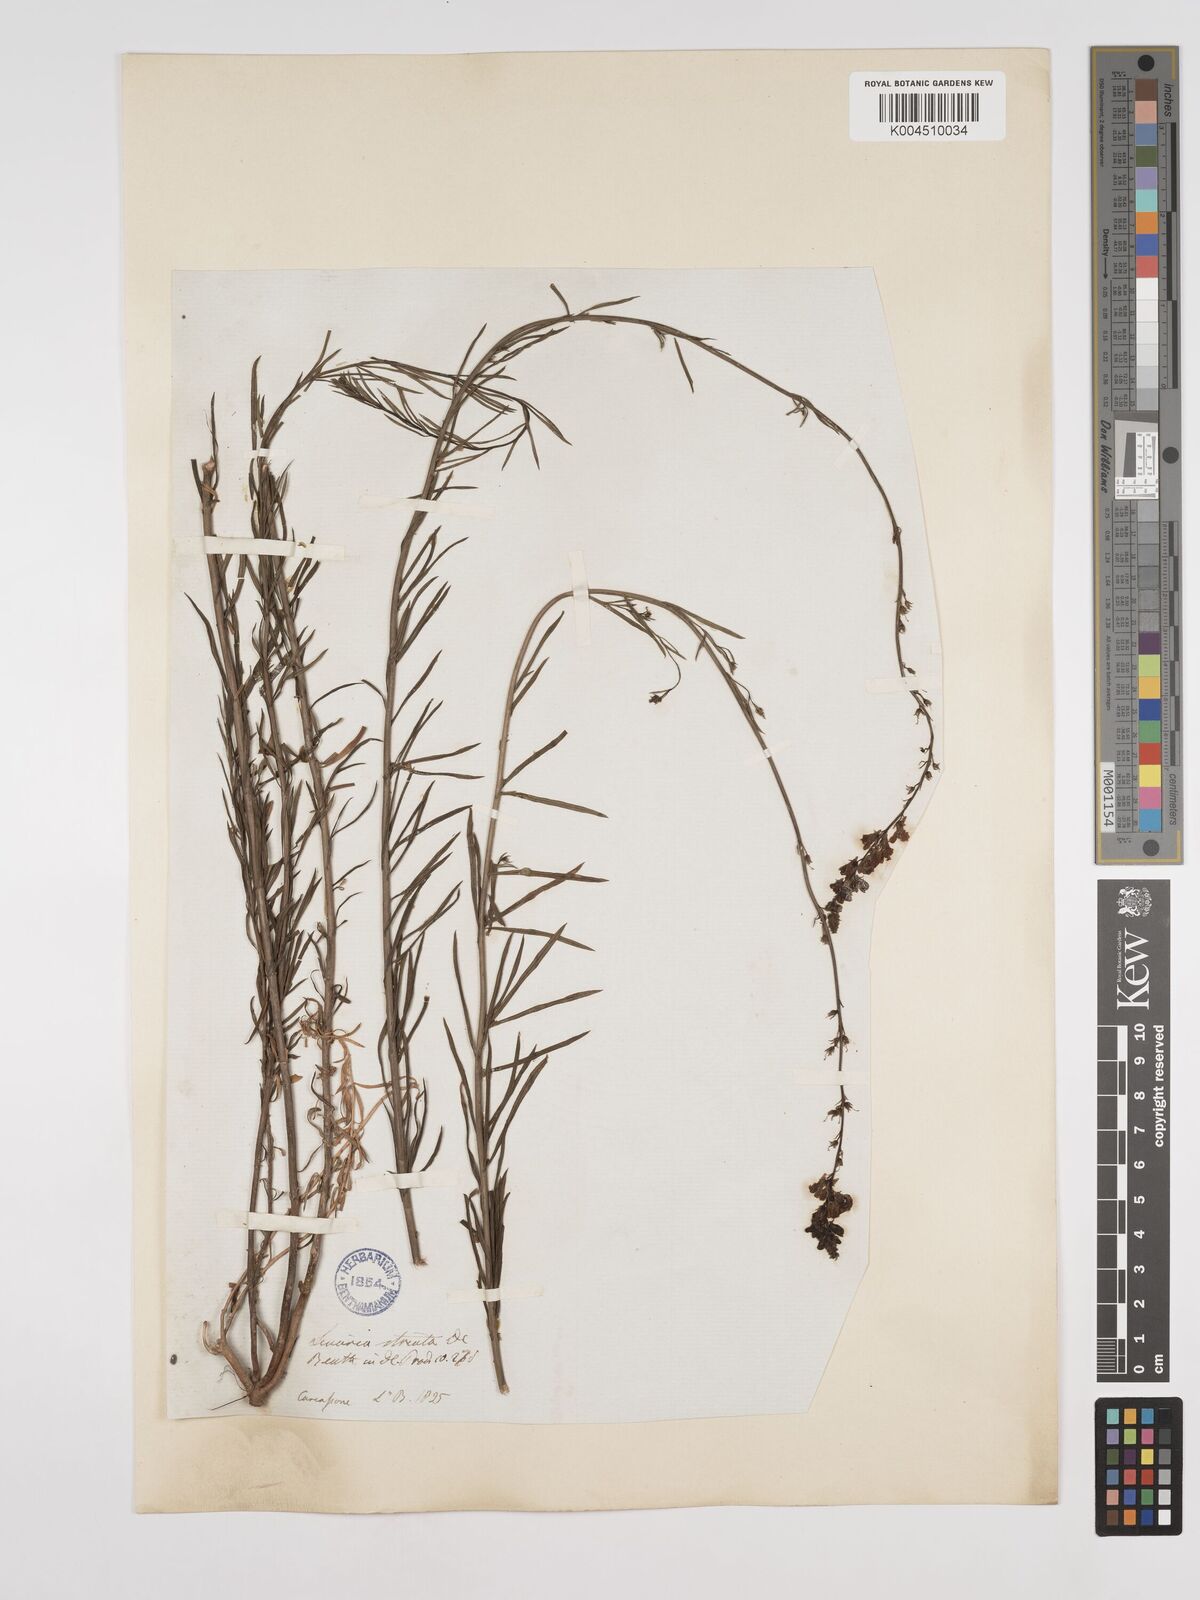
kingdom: Plantae
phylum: Tracheophyta
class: Magnoliopsida
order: Lamiales
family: Plantaginaceae
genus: Linaria
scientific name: Linaria repens
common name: Pale toadflax
